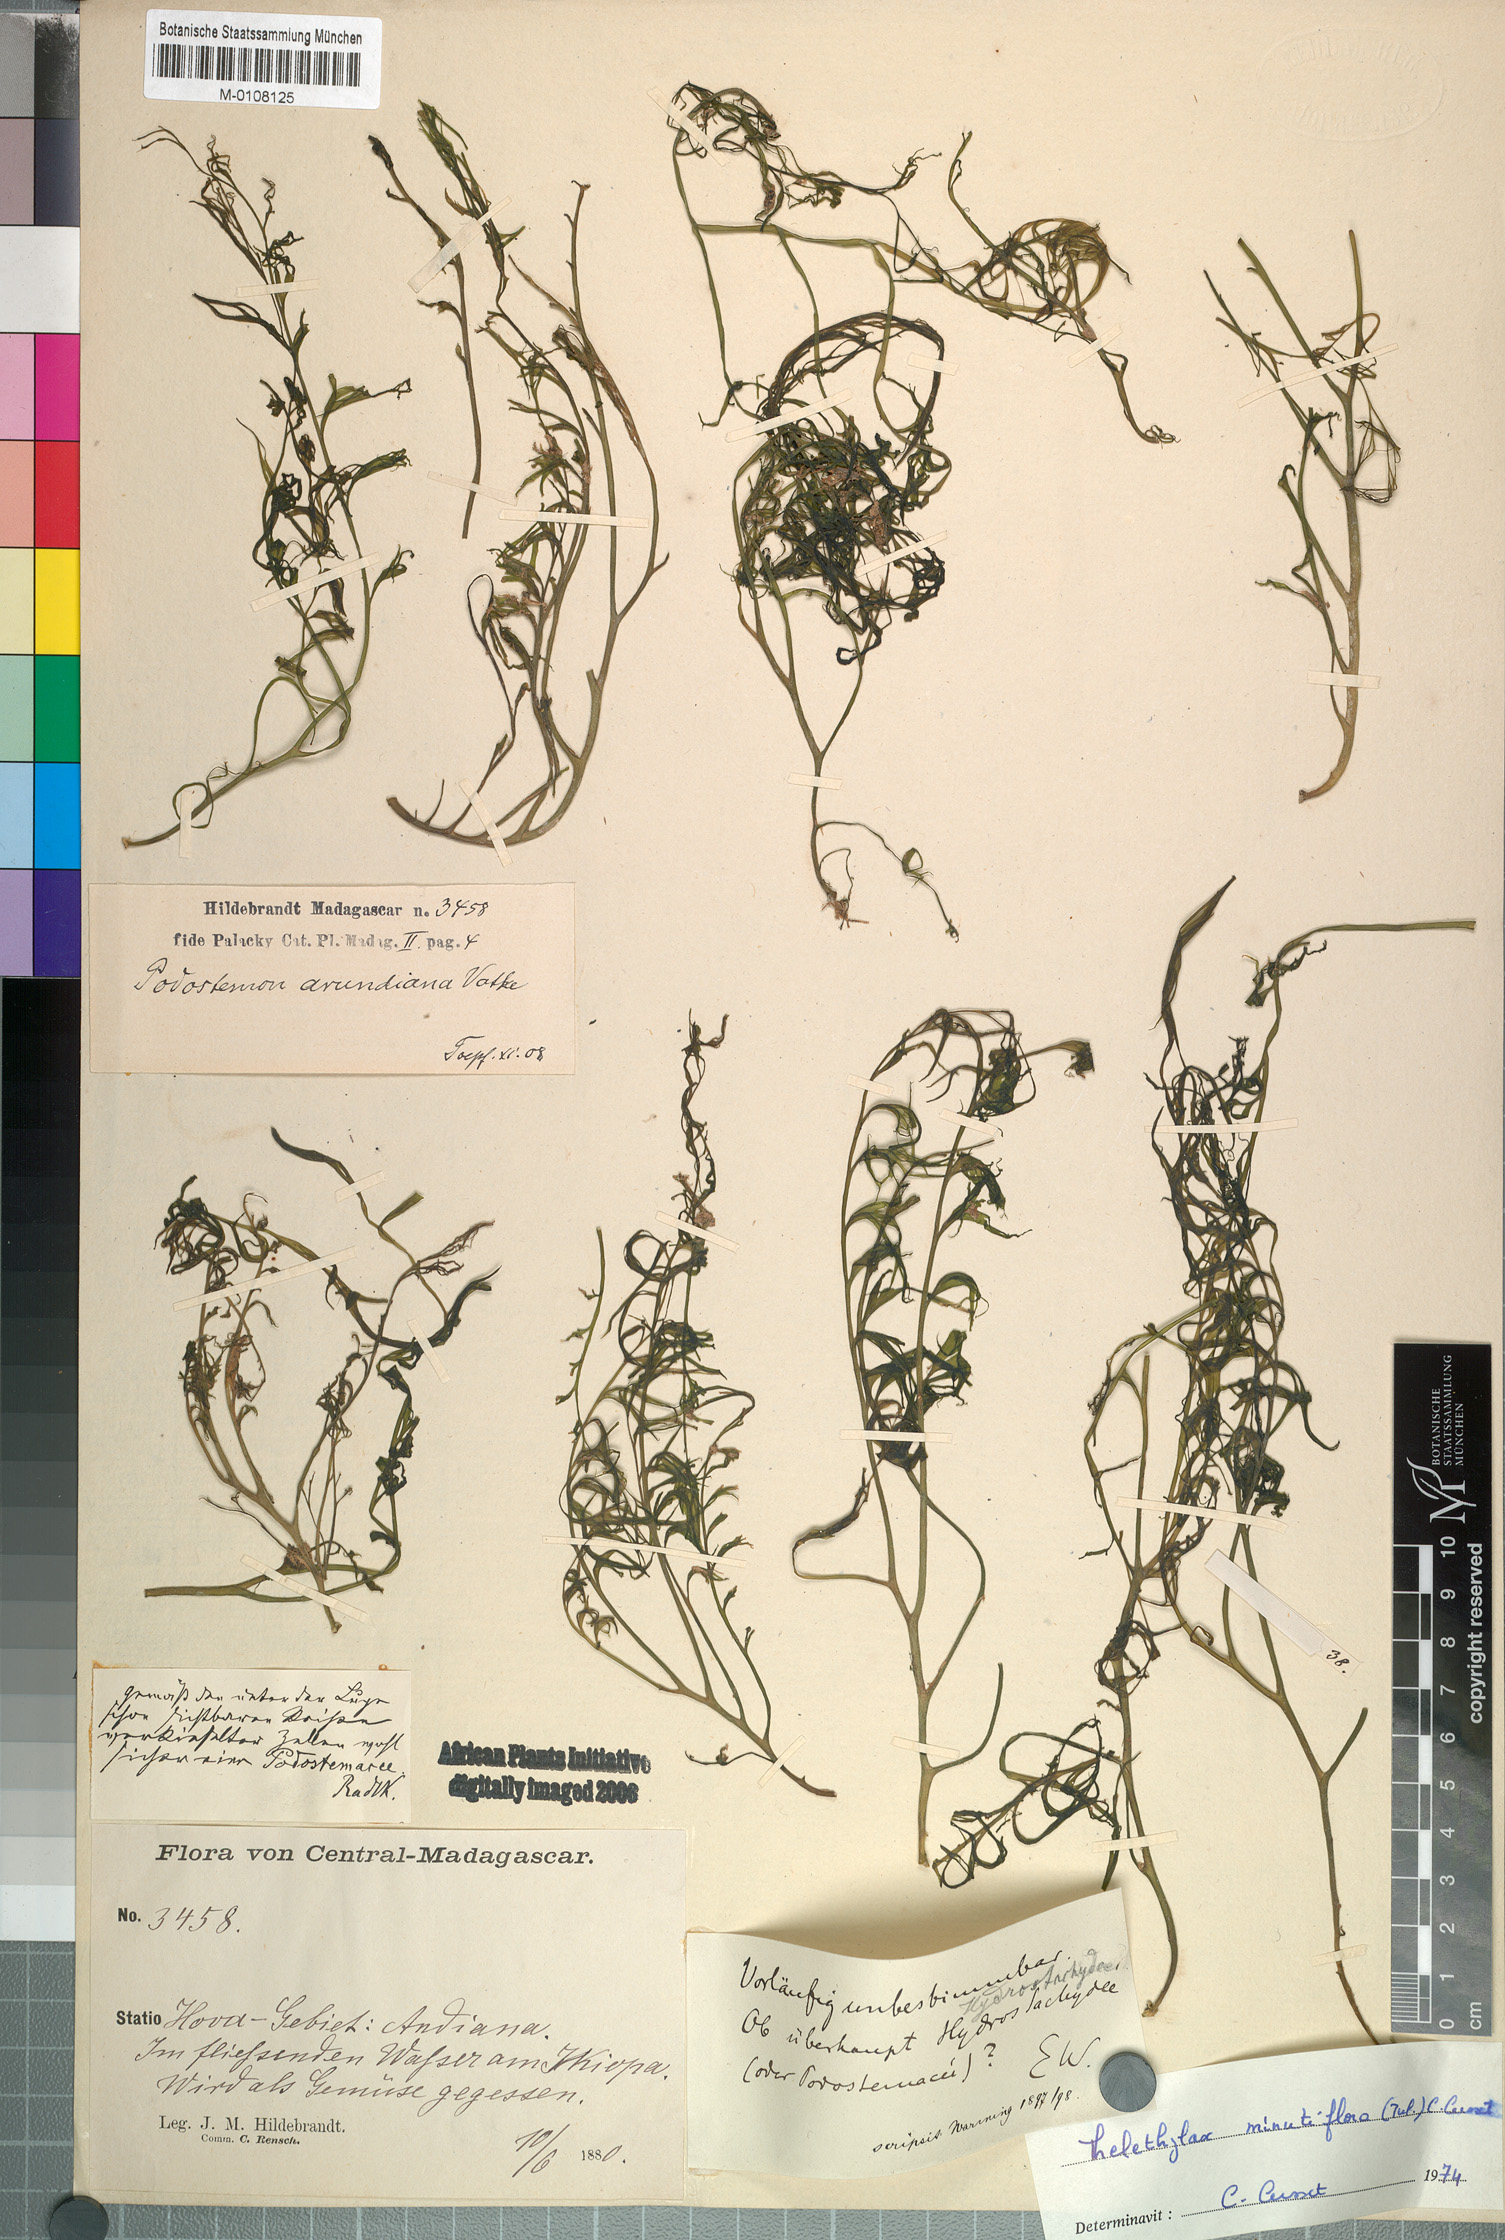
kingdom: Plantae
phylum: Tracheophyta
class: Magnoliopsida
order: Malpighiales
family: Podostemaceae
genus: Thelethylax
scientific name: Thelethylax minutiflora
